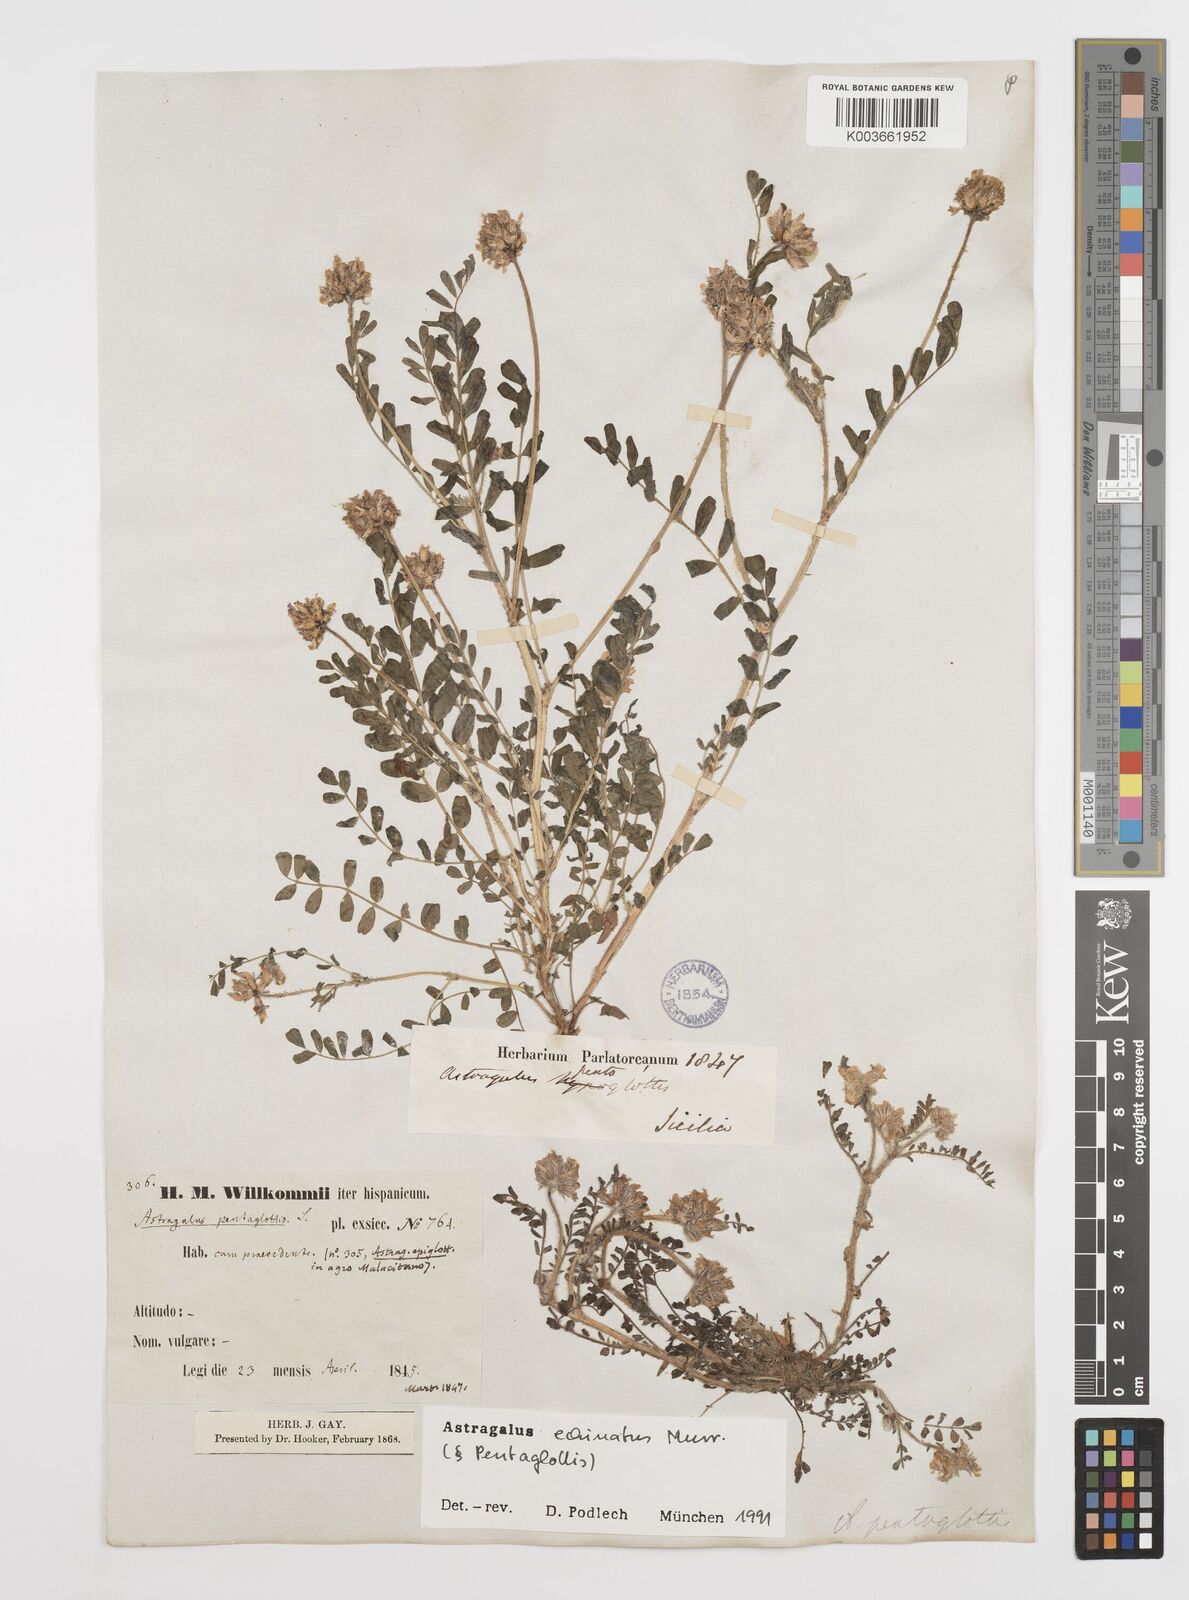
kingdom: Plantae
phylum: Tracheophyta
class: Magnoliopsida
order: Fabales
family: Fabaceae
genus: Astragalus
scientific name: Astragalus echinatus
